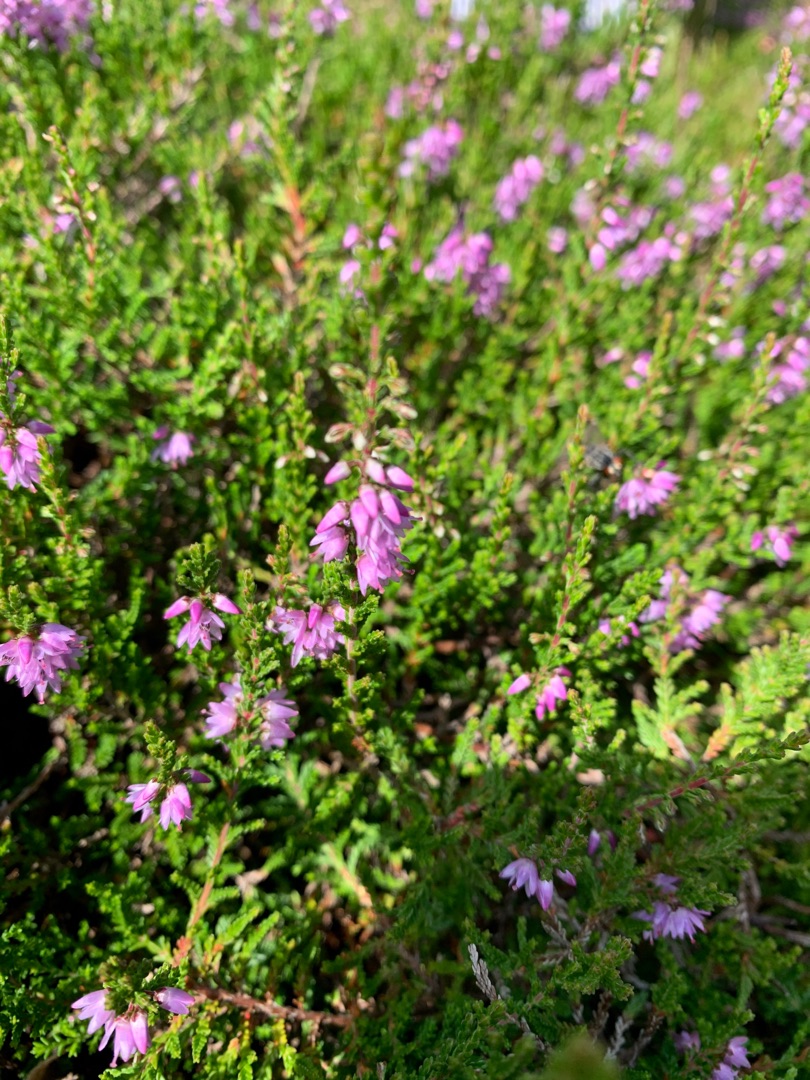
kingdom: Plantae
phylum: Tracheophyta
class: Magnoliopsida
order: Ericales
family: Ericaceae
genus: Calluna
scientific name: Calluna vulgaris
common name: Hedelyng
